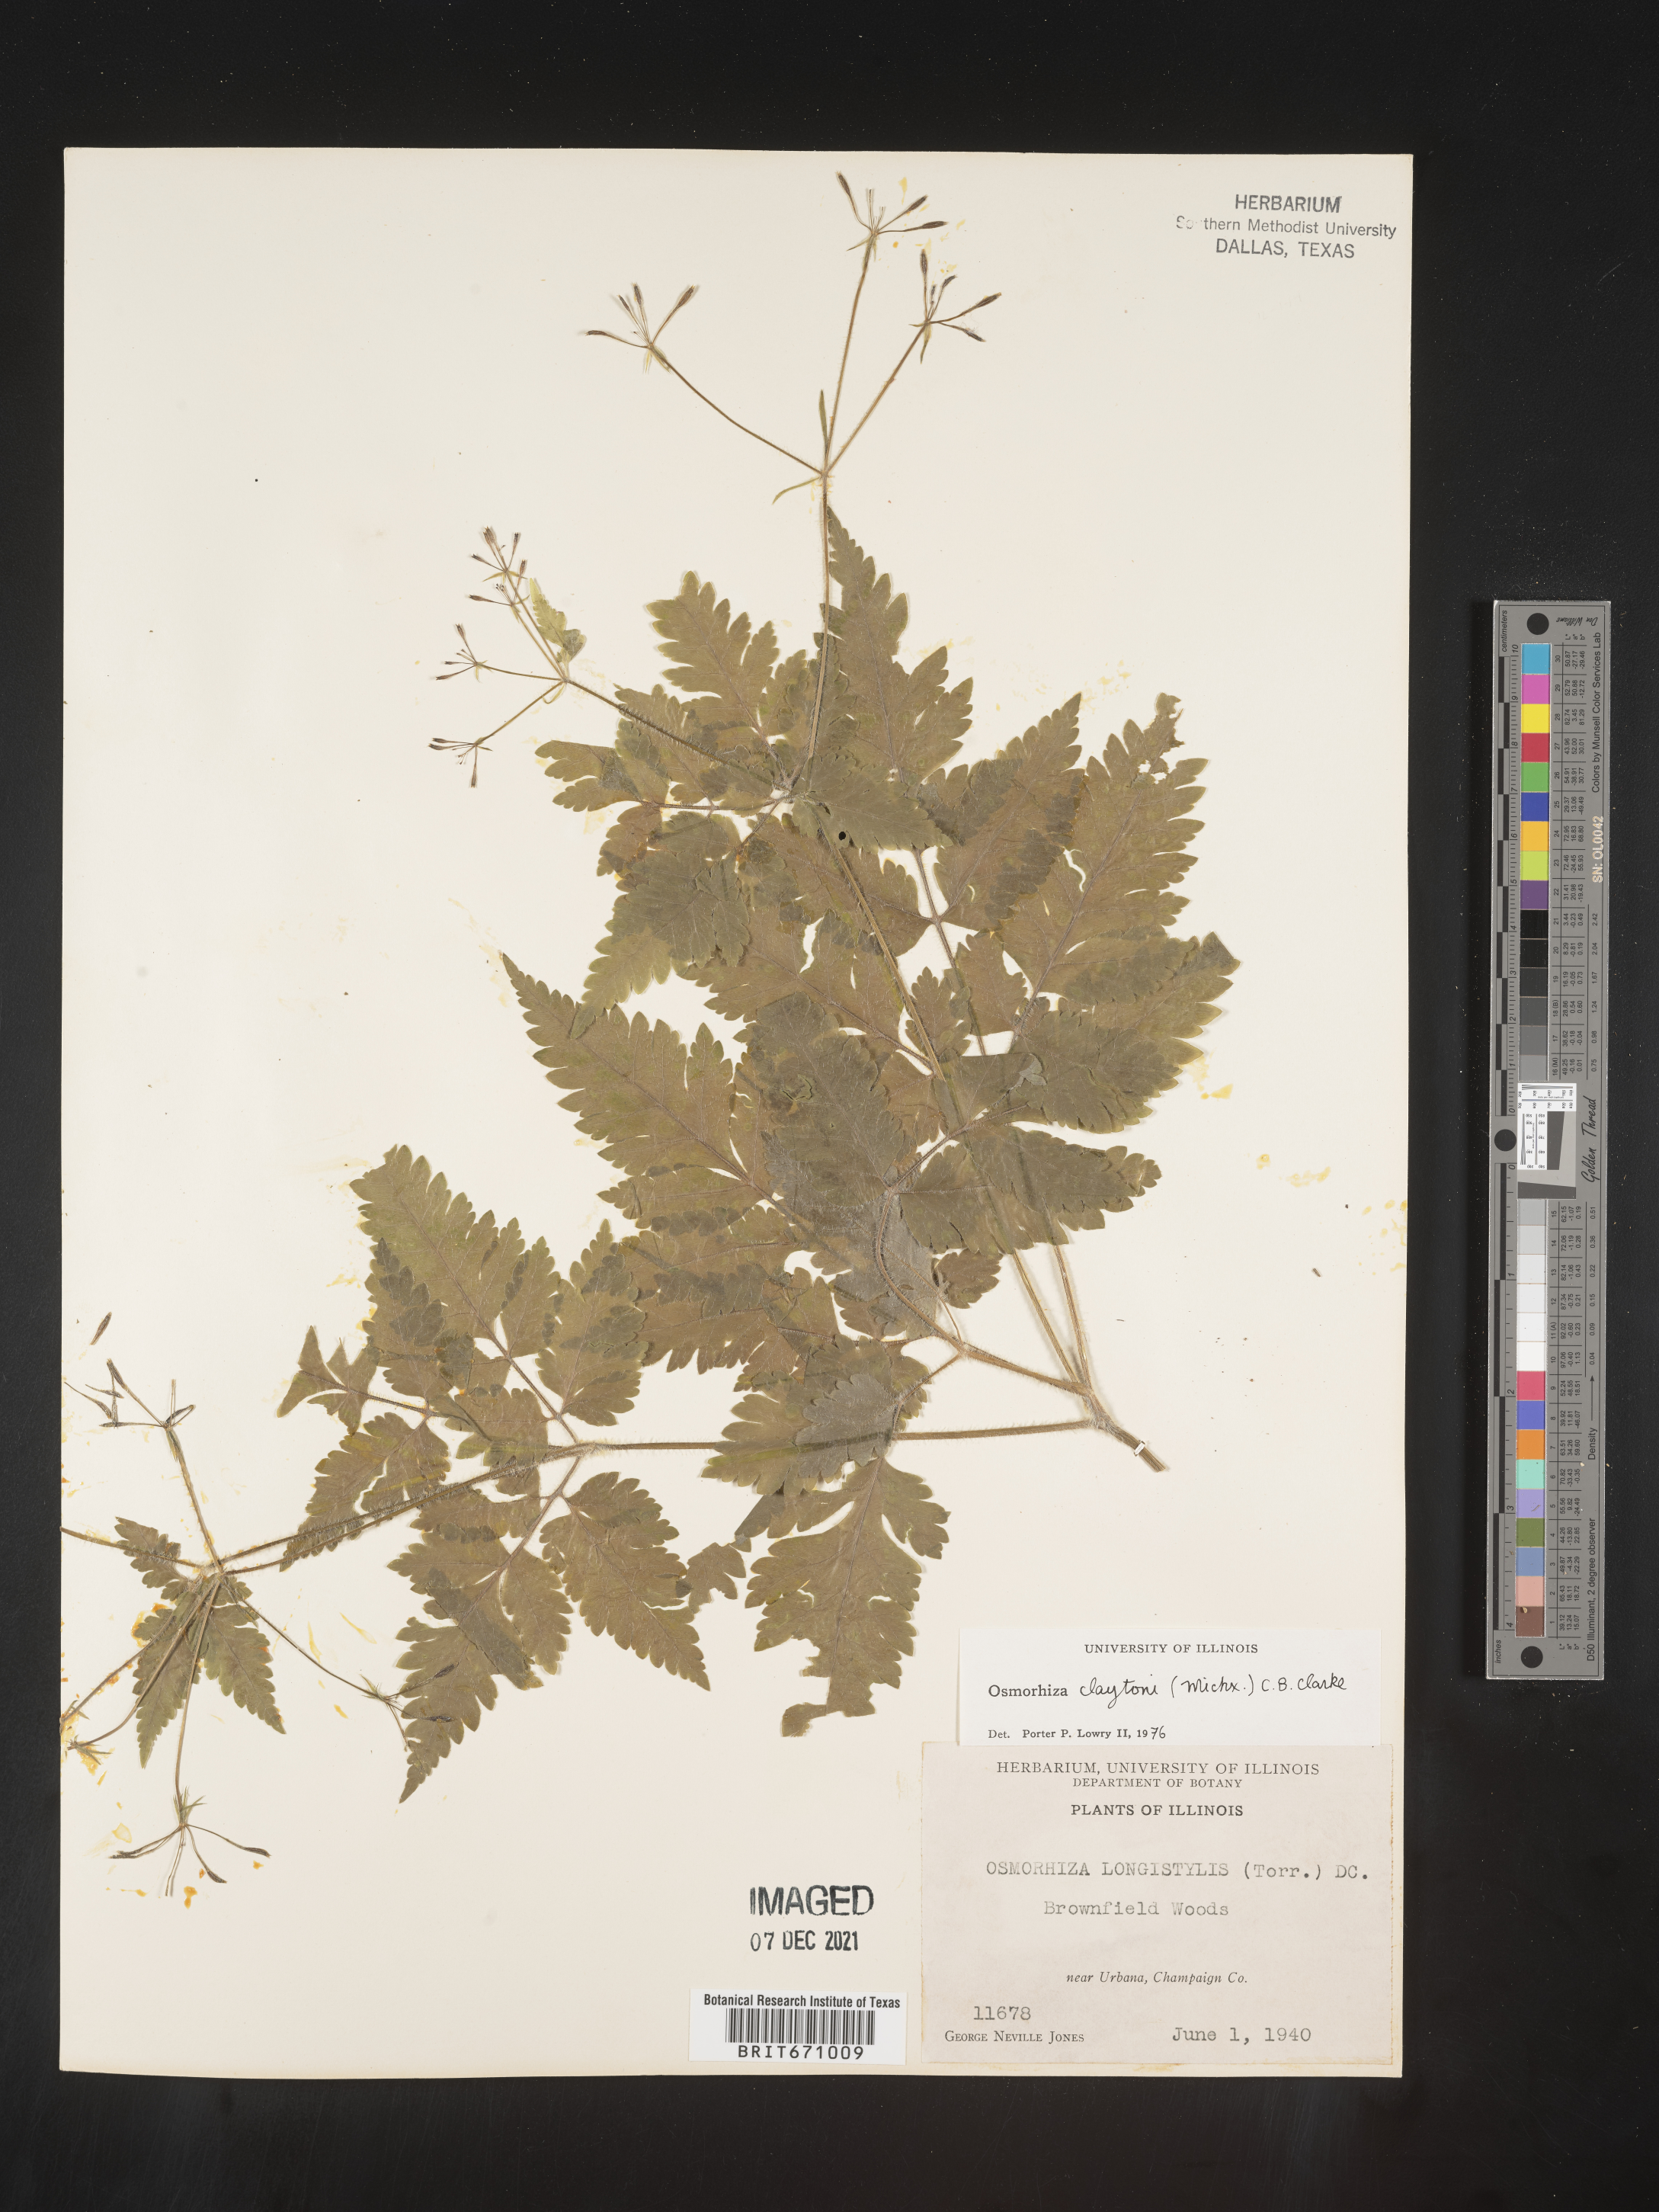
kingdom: Plantae
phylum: Tracheophyta
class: Magnoliopsida
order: Apiales
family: Apiaceae
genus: Osmorhiza
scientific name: Osmorhiza claytonii
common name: Hairy sweet cicely
